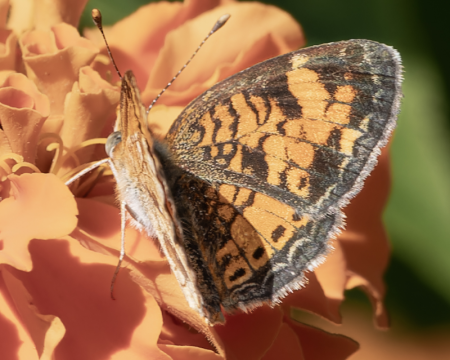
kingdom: Animalia
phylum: Arthropoda
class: Insecta
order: Lepidoptera
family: Nymphalidae
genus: Phyciodes
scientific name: Phyciodes tharos
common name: Northern Crescent
